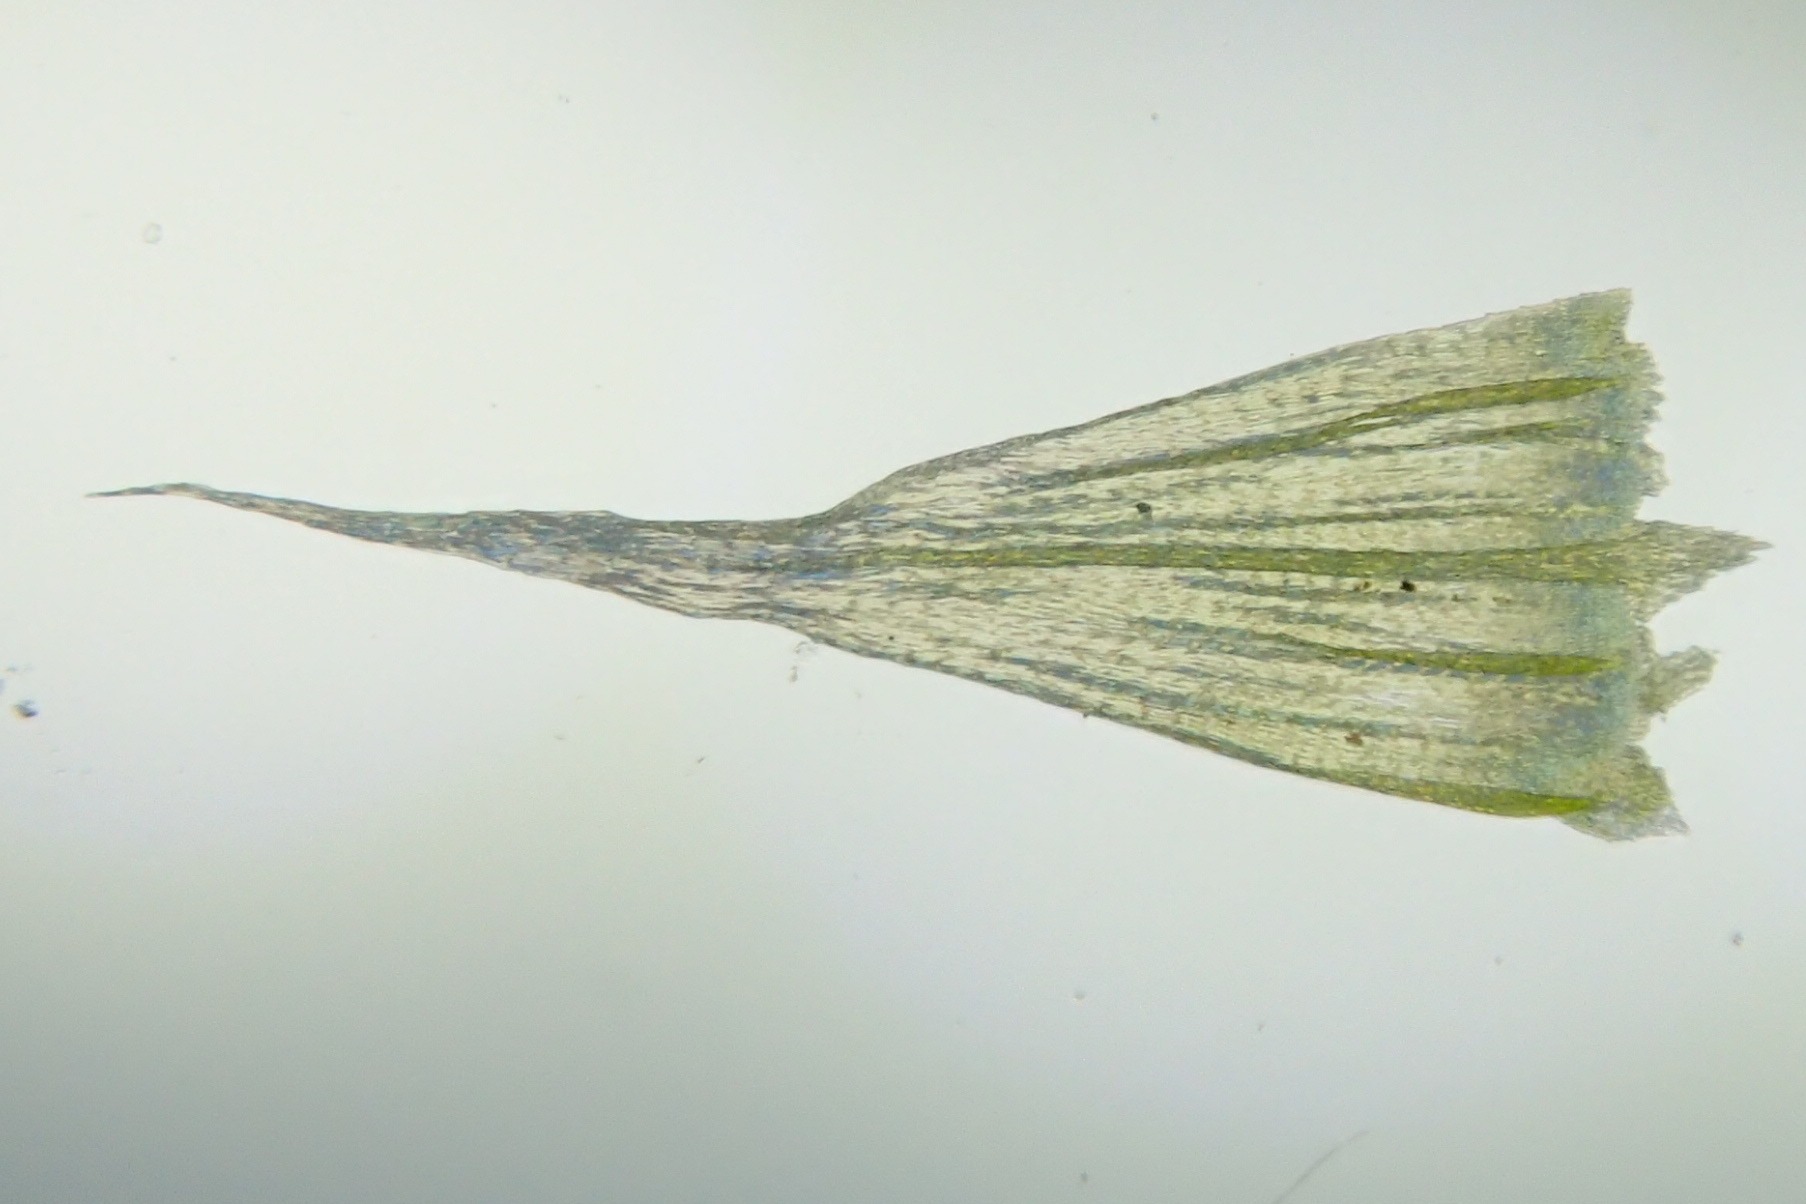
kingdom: Plantae
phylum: Bryophyta
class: Bryopsida
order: Hypnales
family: Brachytheciaceae
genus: Homalothecium
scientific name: Homalothecium sericeum
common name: Krybende silkemos
